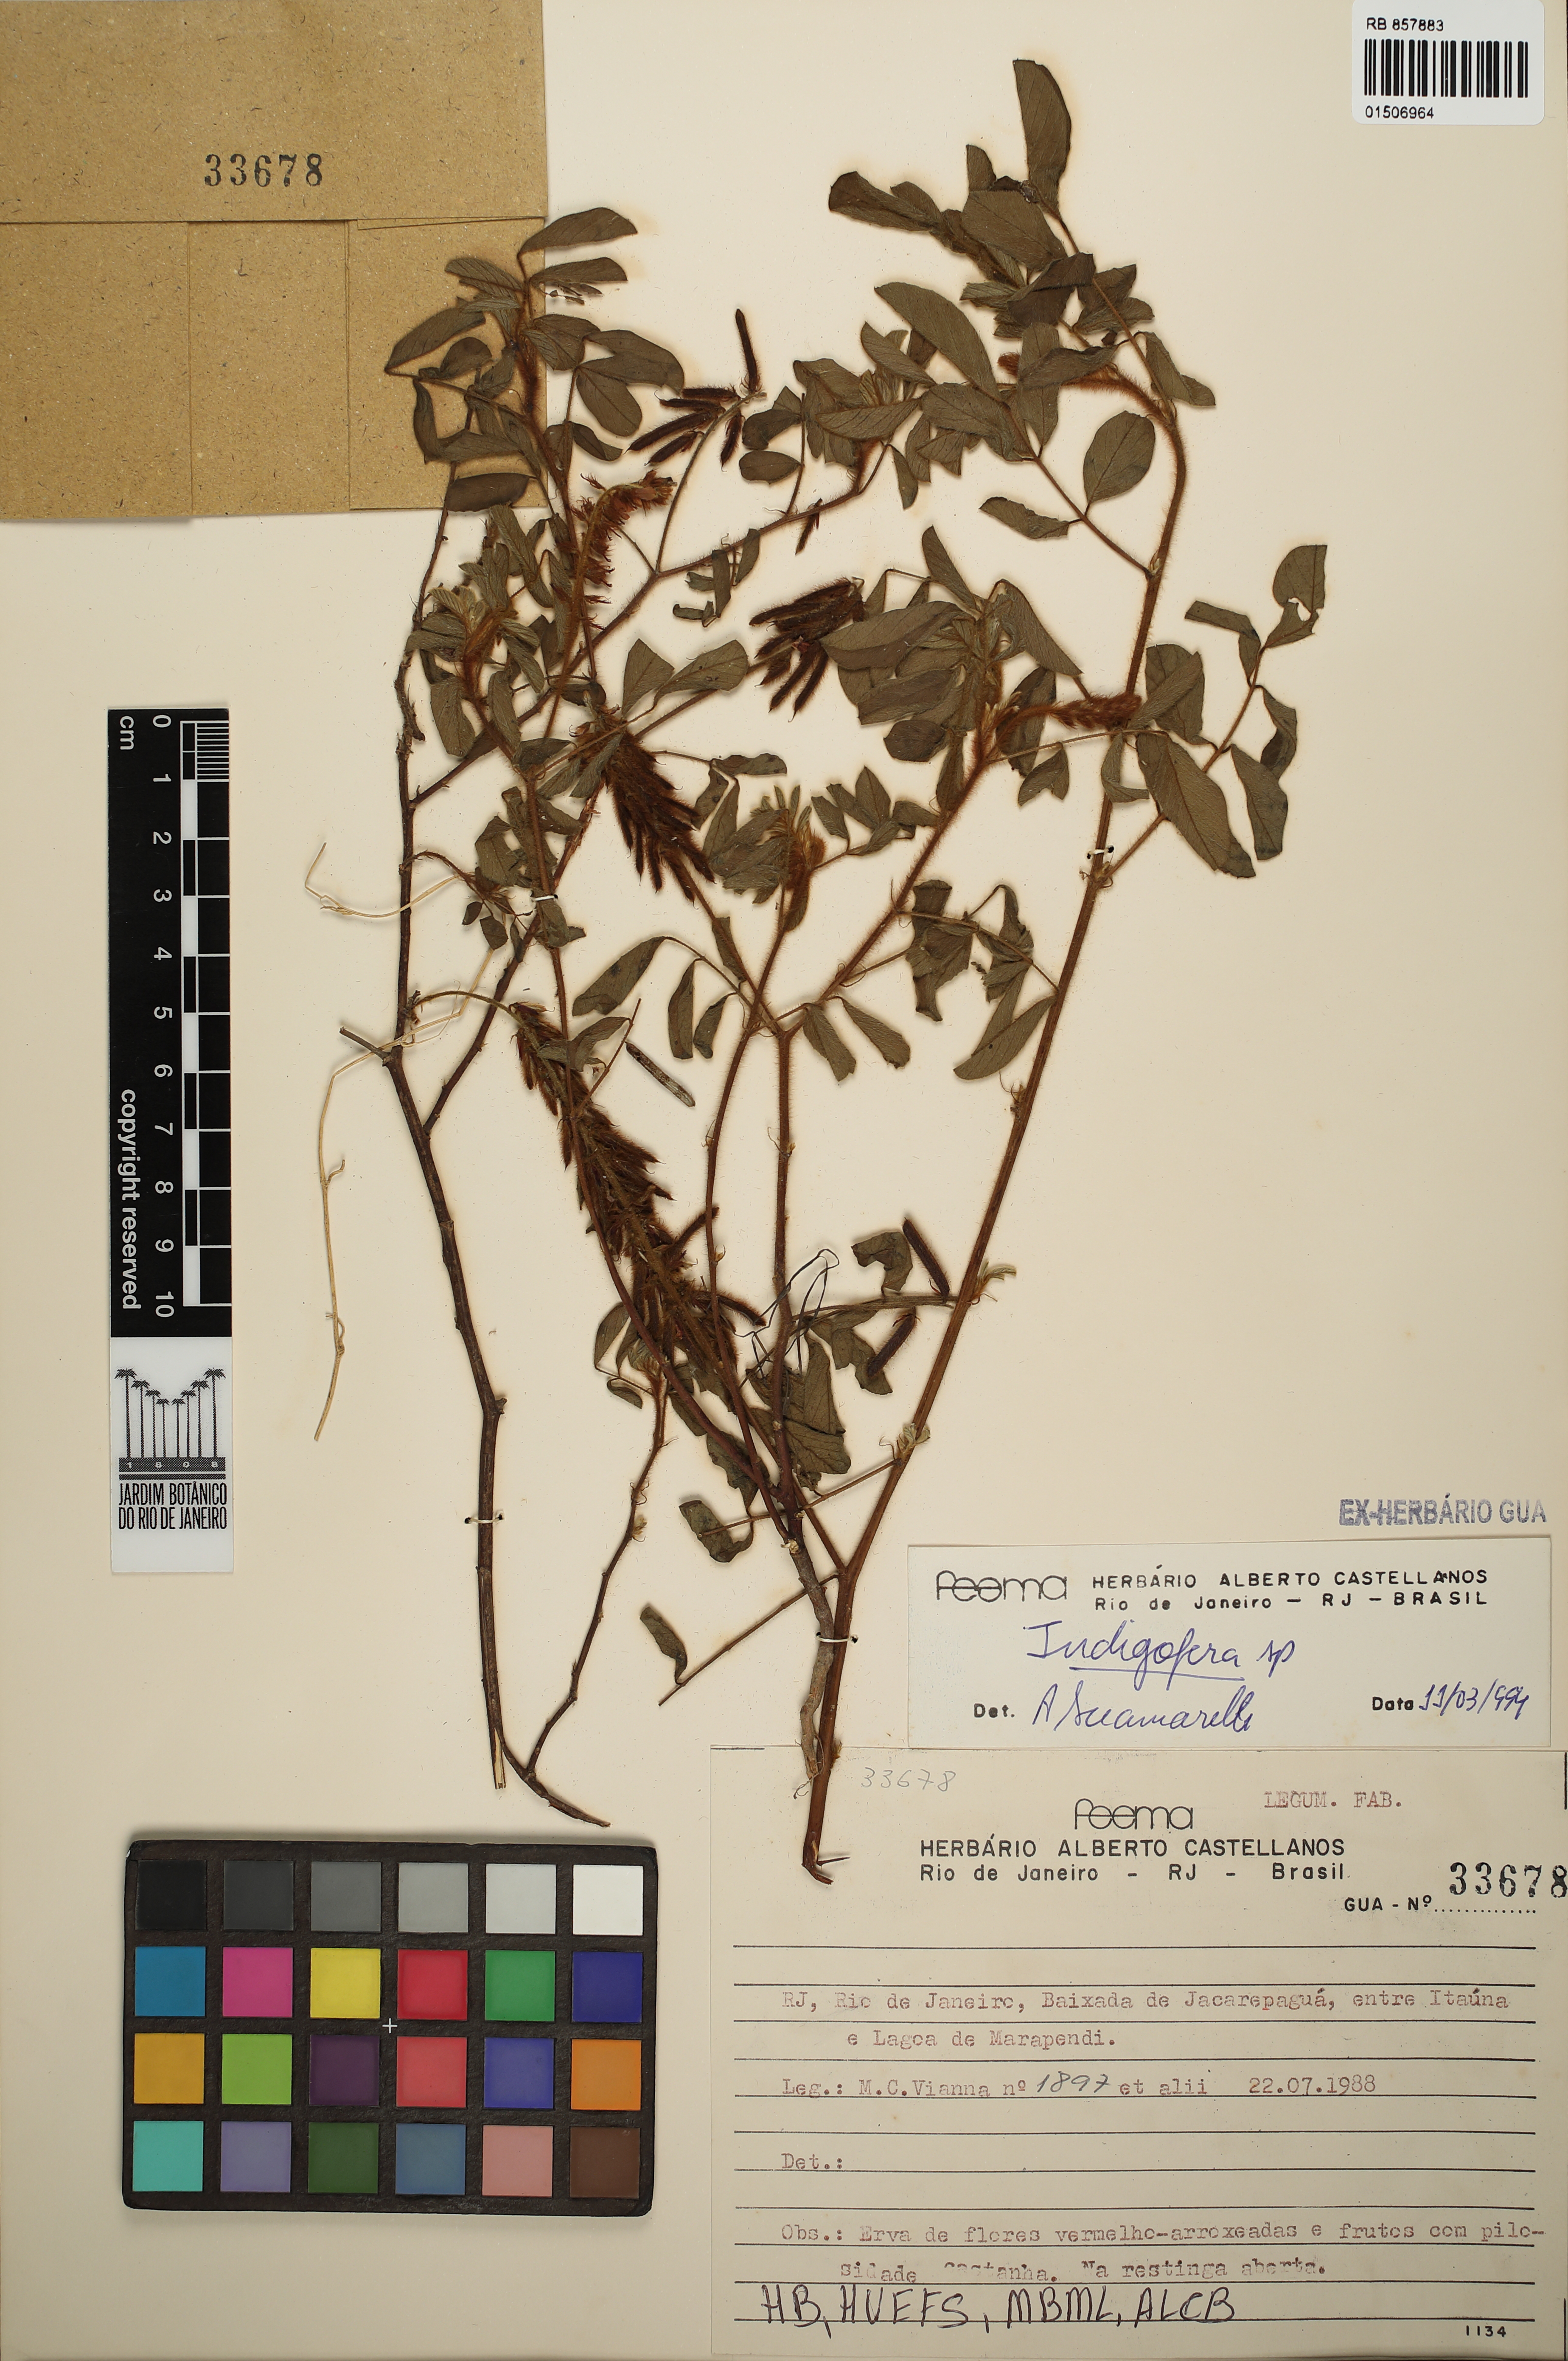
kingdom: Plantae
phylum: Tracheophyta
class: Magnoliopsida
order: Fabales
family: Fabaceae
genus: Indigofera
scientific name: Indigofera
